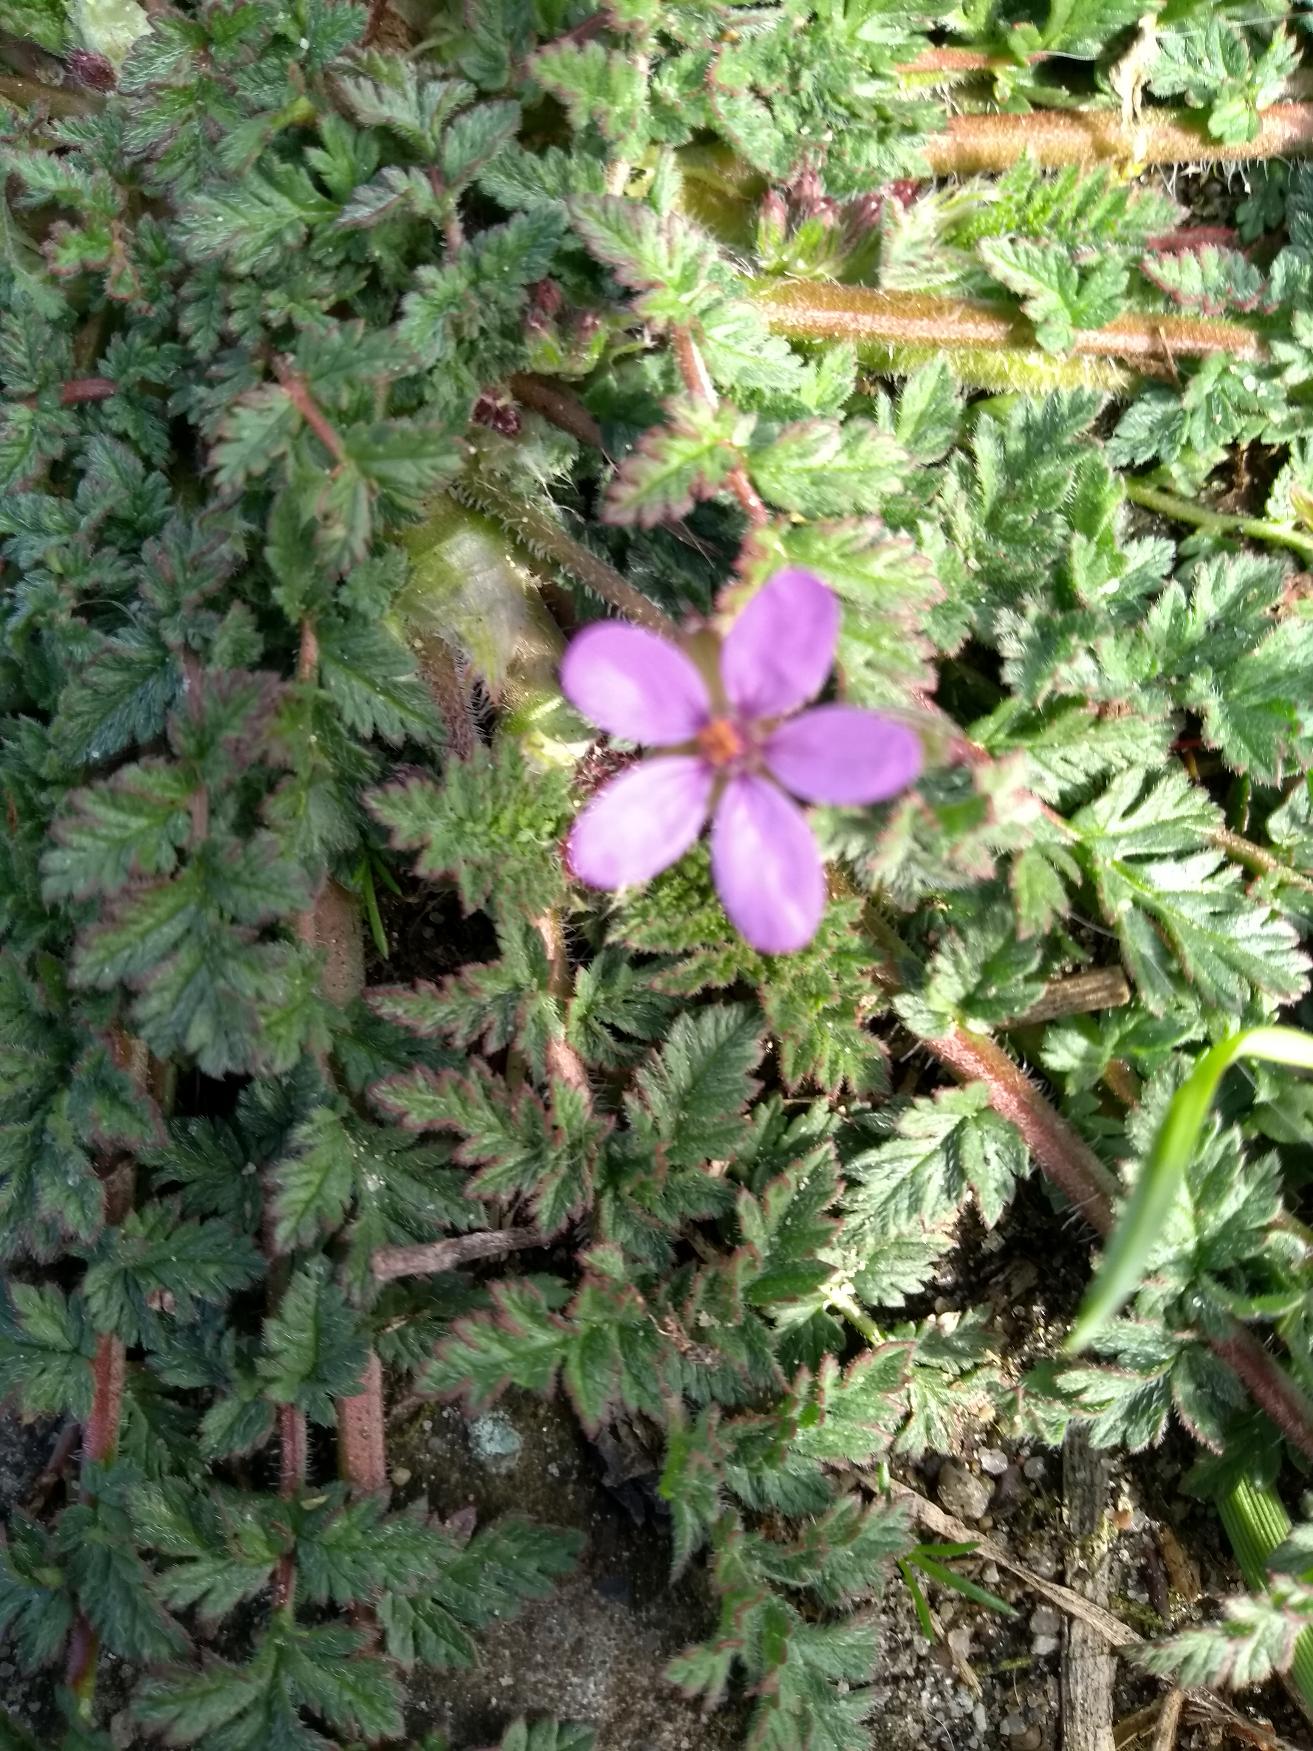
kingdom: Plantae
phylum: Tracheophyta
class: Magnoliopsida
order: Geraniales
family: Geraniaceae
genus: Erodium
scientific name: Erodium cicutarium
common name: Hejrenæb
